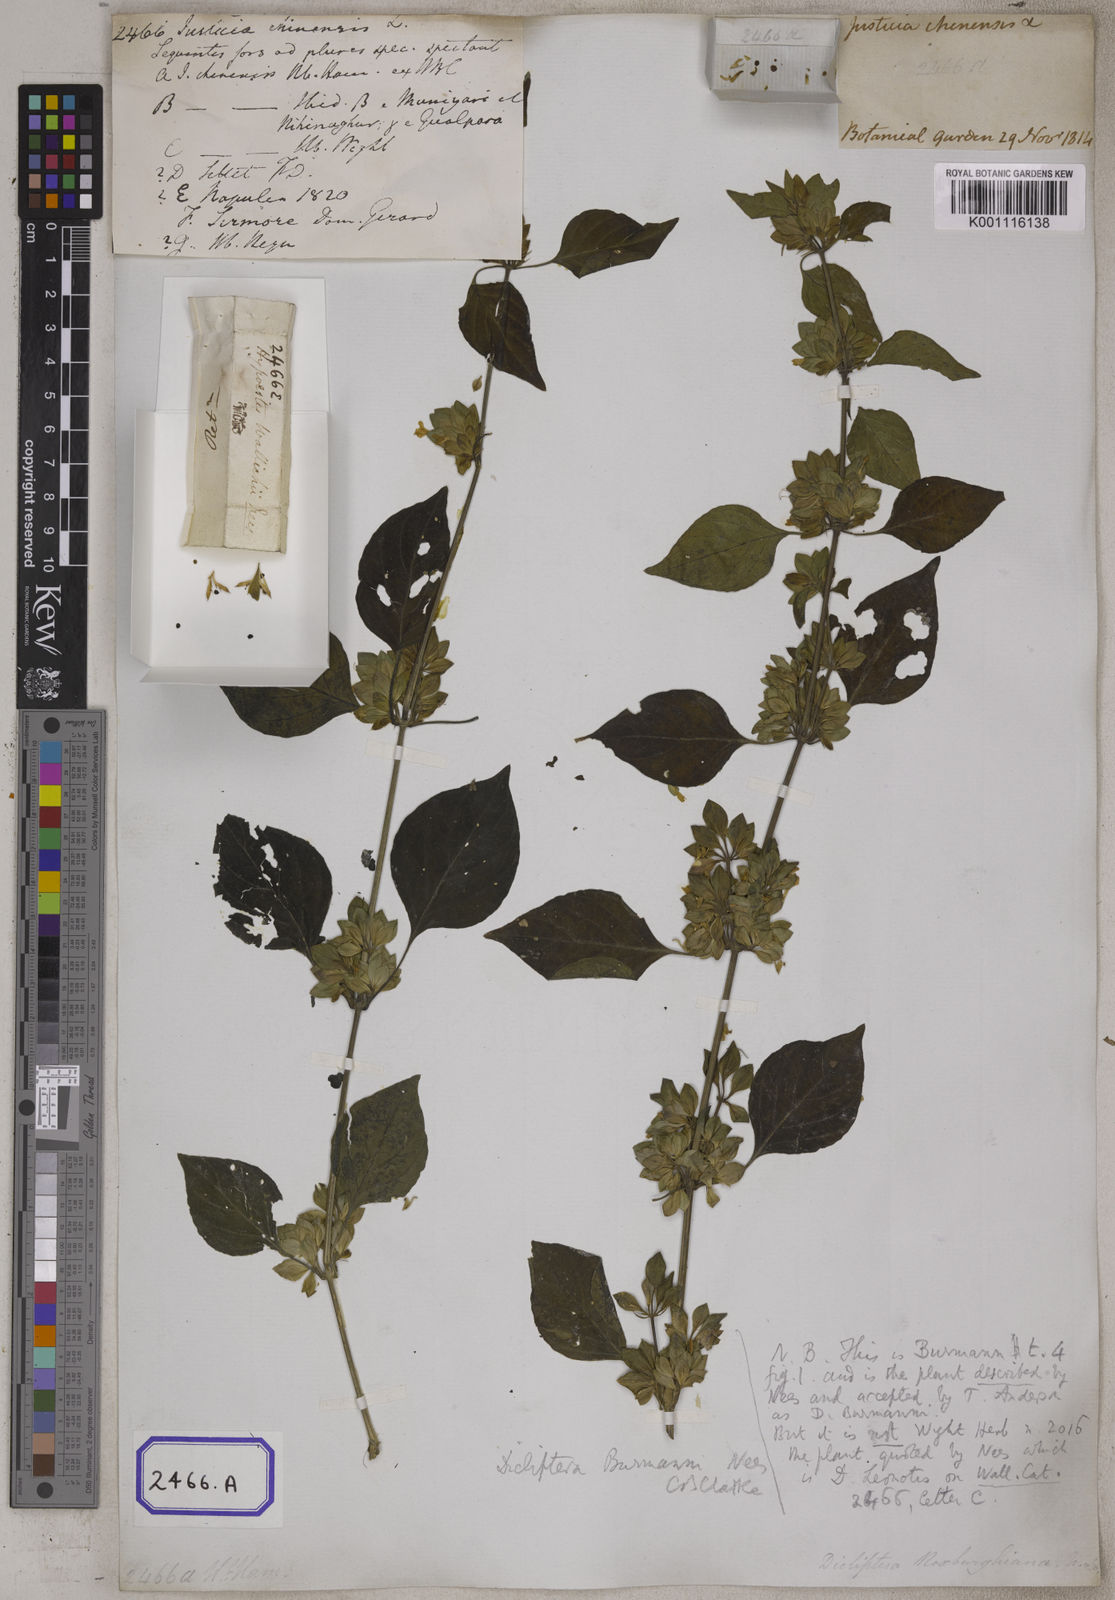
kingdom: Plantae
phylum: Tracheophyta
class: Magnoliopsida
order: Lamiales
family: Acanthaceae
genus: Dicliptera
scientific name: Dicliptera chinensis
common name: Chinese foldwing
